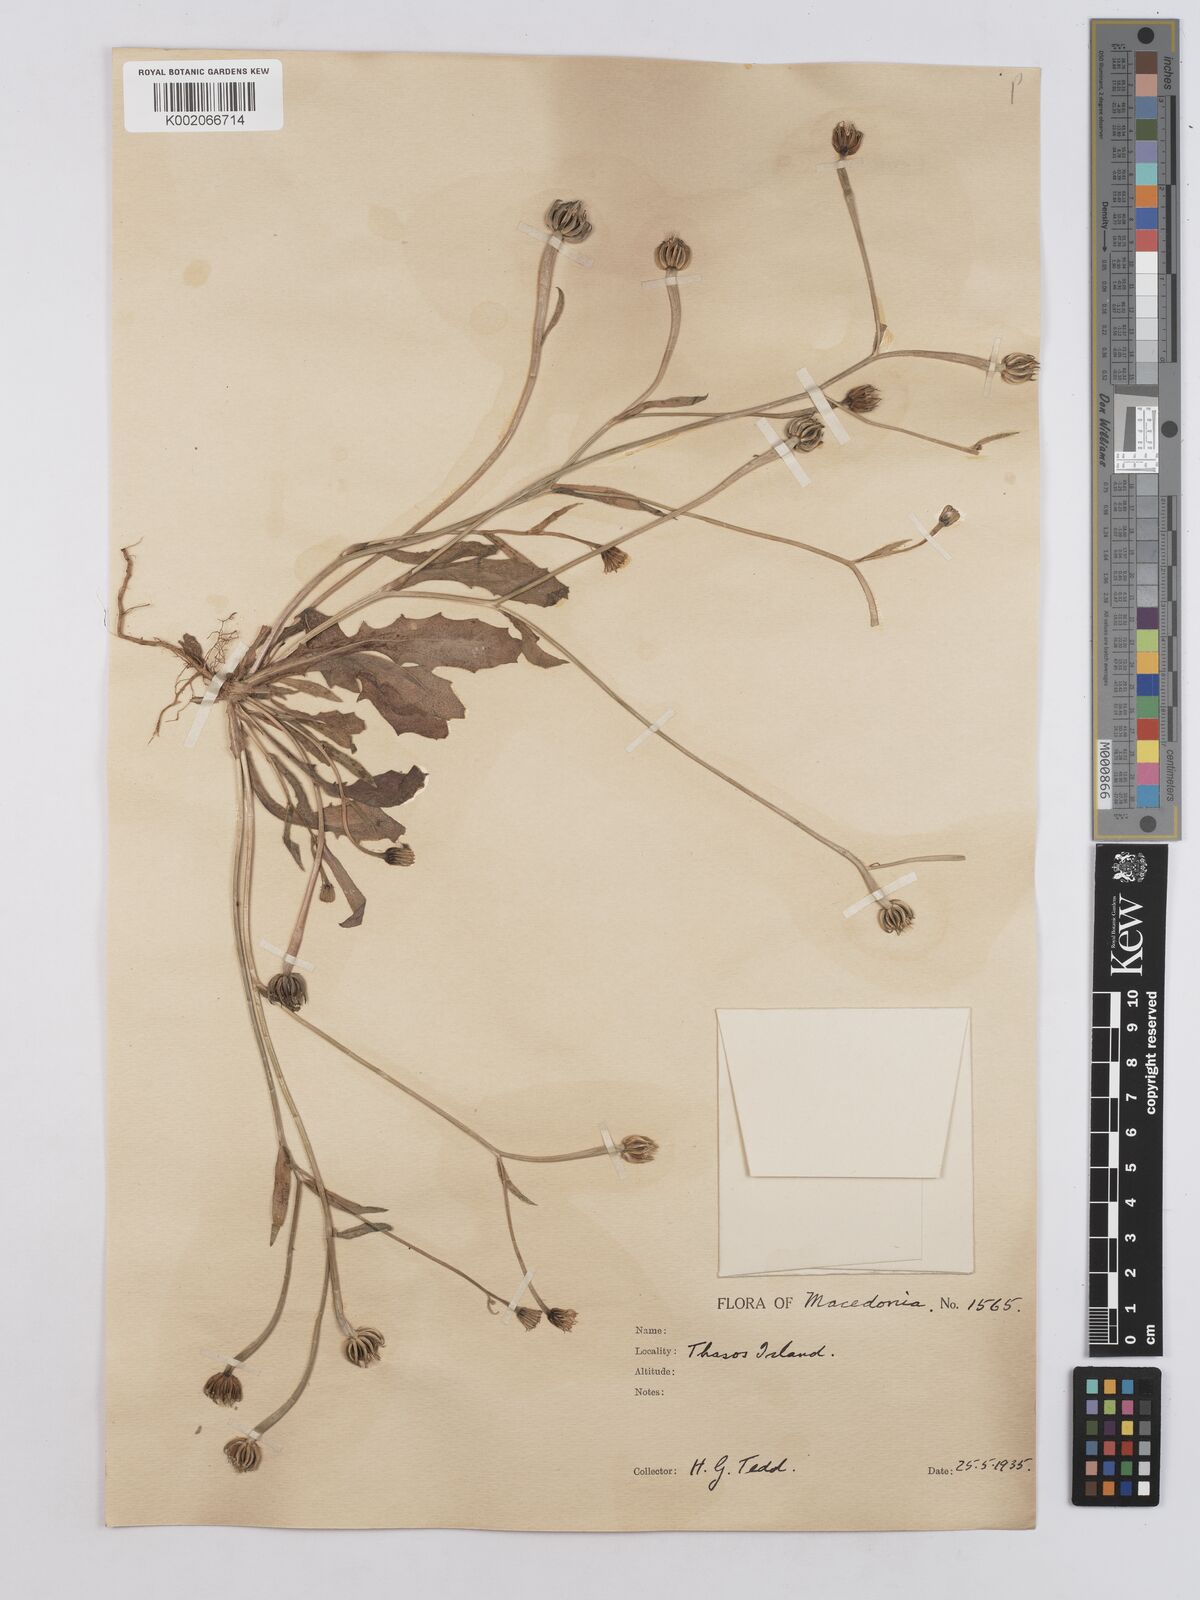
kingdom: Plantae
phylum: Tracheophyta
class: Magnoliopsida
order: Asterales
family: Asteraceae
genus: Hedypnois
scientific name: Hedypnois rhagadioloides
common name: Cretan weed
